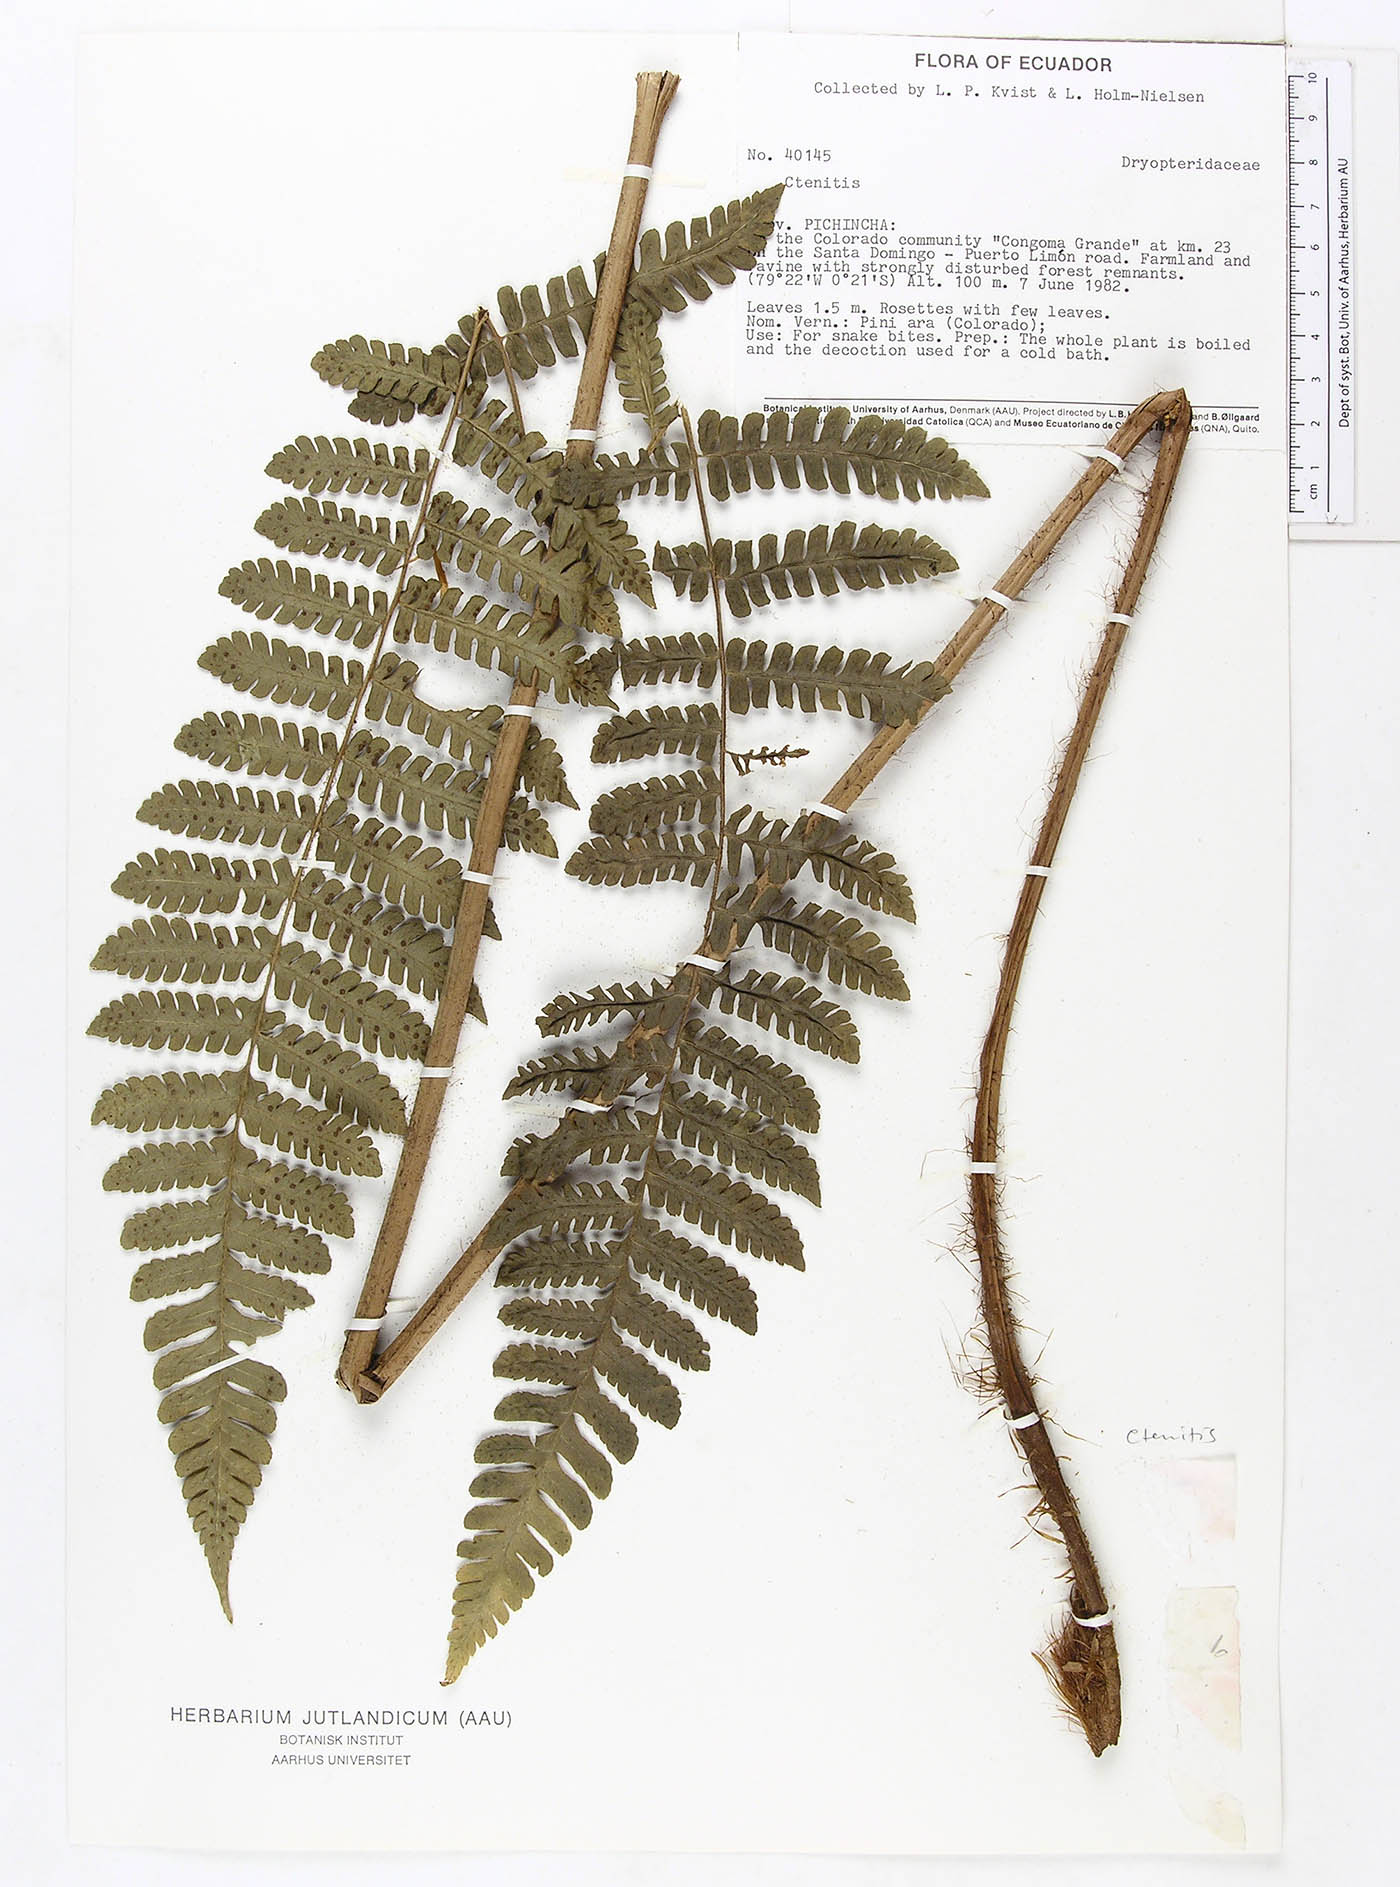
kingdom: Plantae
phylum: Tracheophyta
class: Polypodiopsida
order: Polypodiales
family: Dryopteridaceae
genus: Megalastrum
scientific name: Megalastrum reductum
